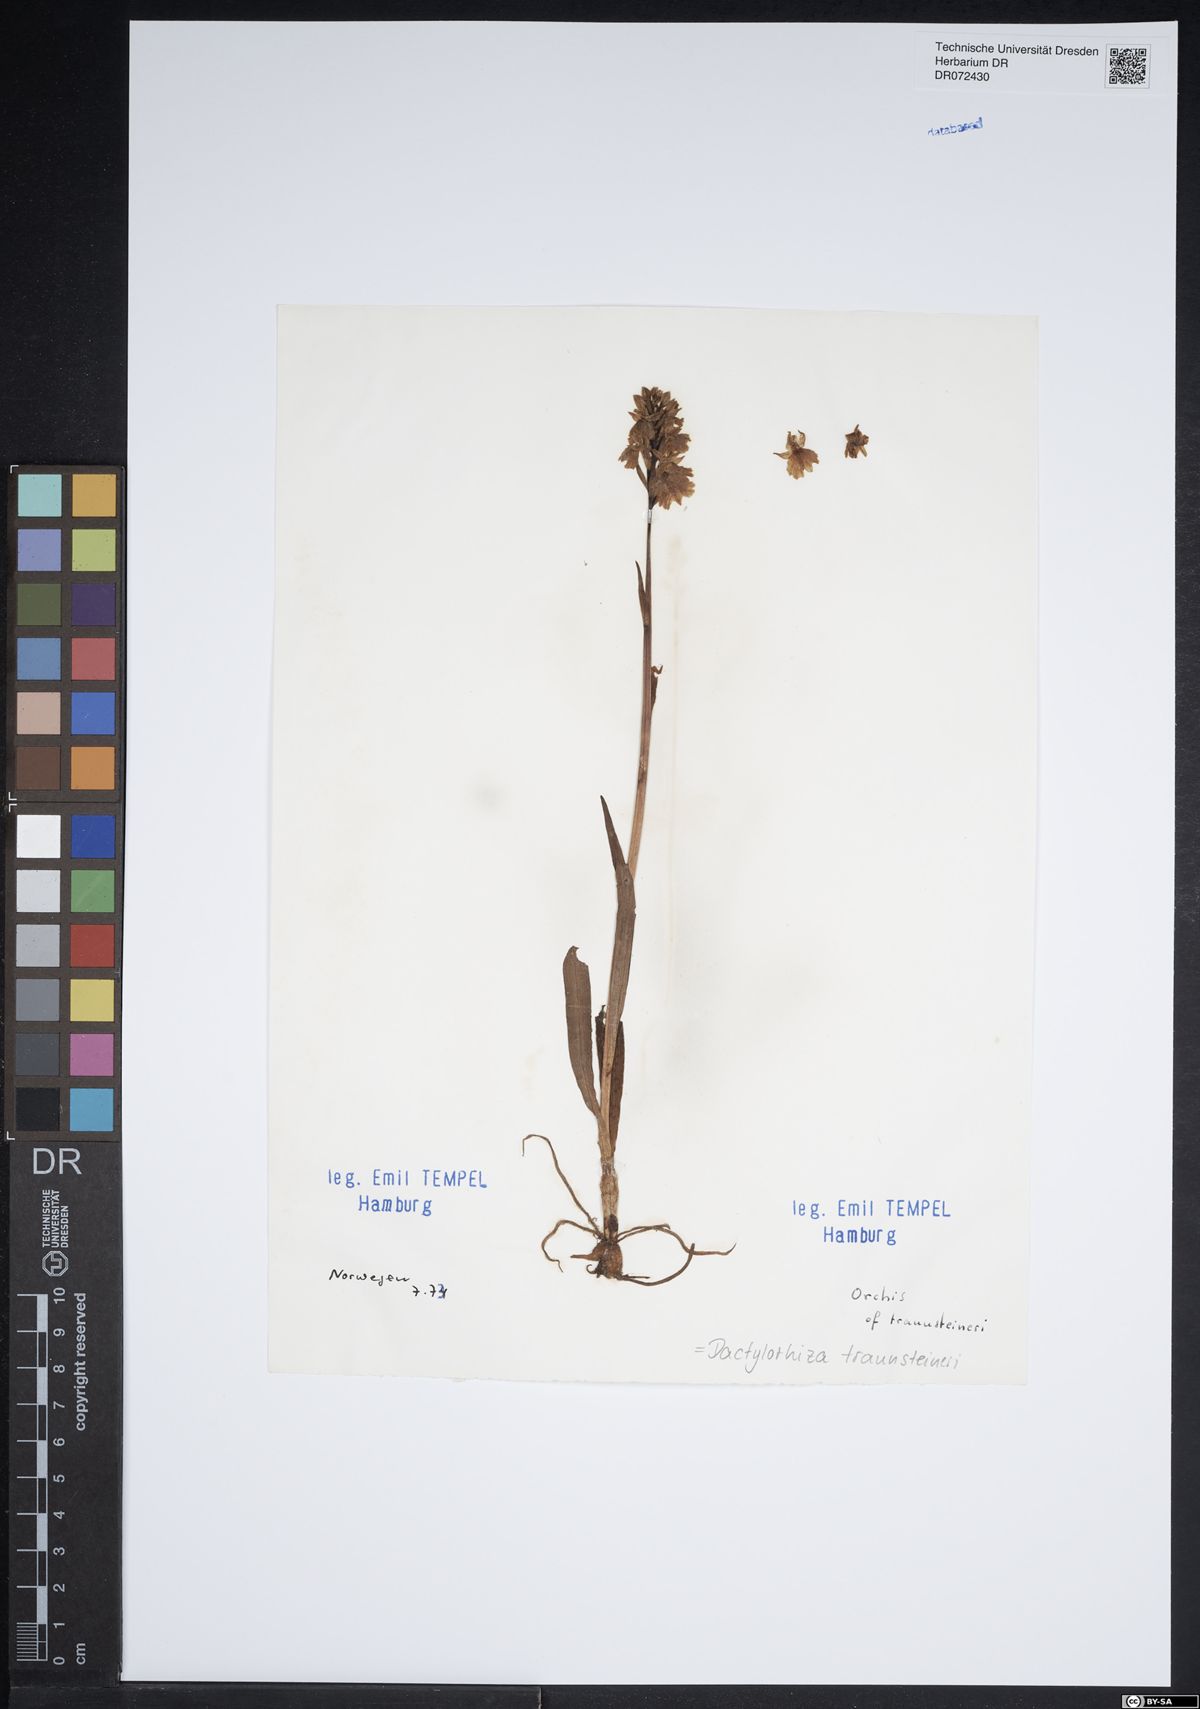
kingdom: Plantae
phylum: Tracheophyta
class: Liliopsida
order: Asparagales
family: Orchidaceae
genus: Dactylorhiza
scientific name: Dactylorhiza majalis
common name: Marsh orchid
